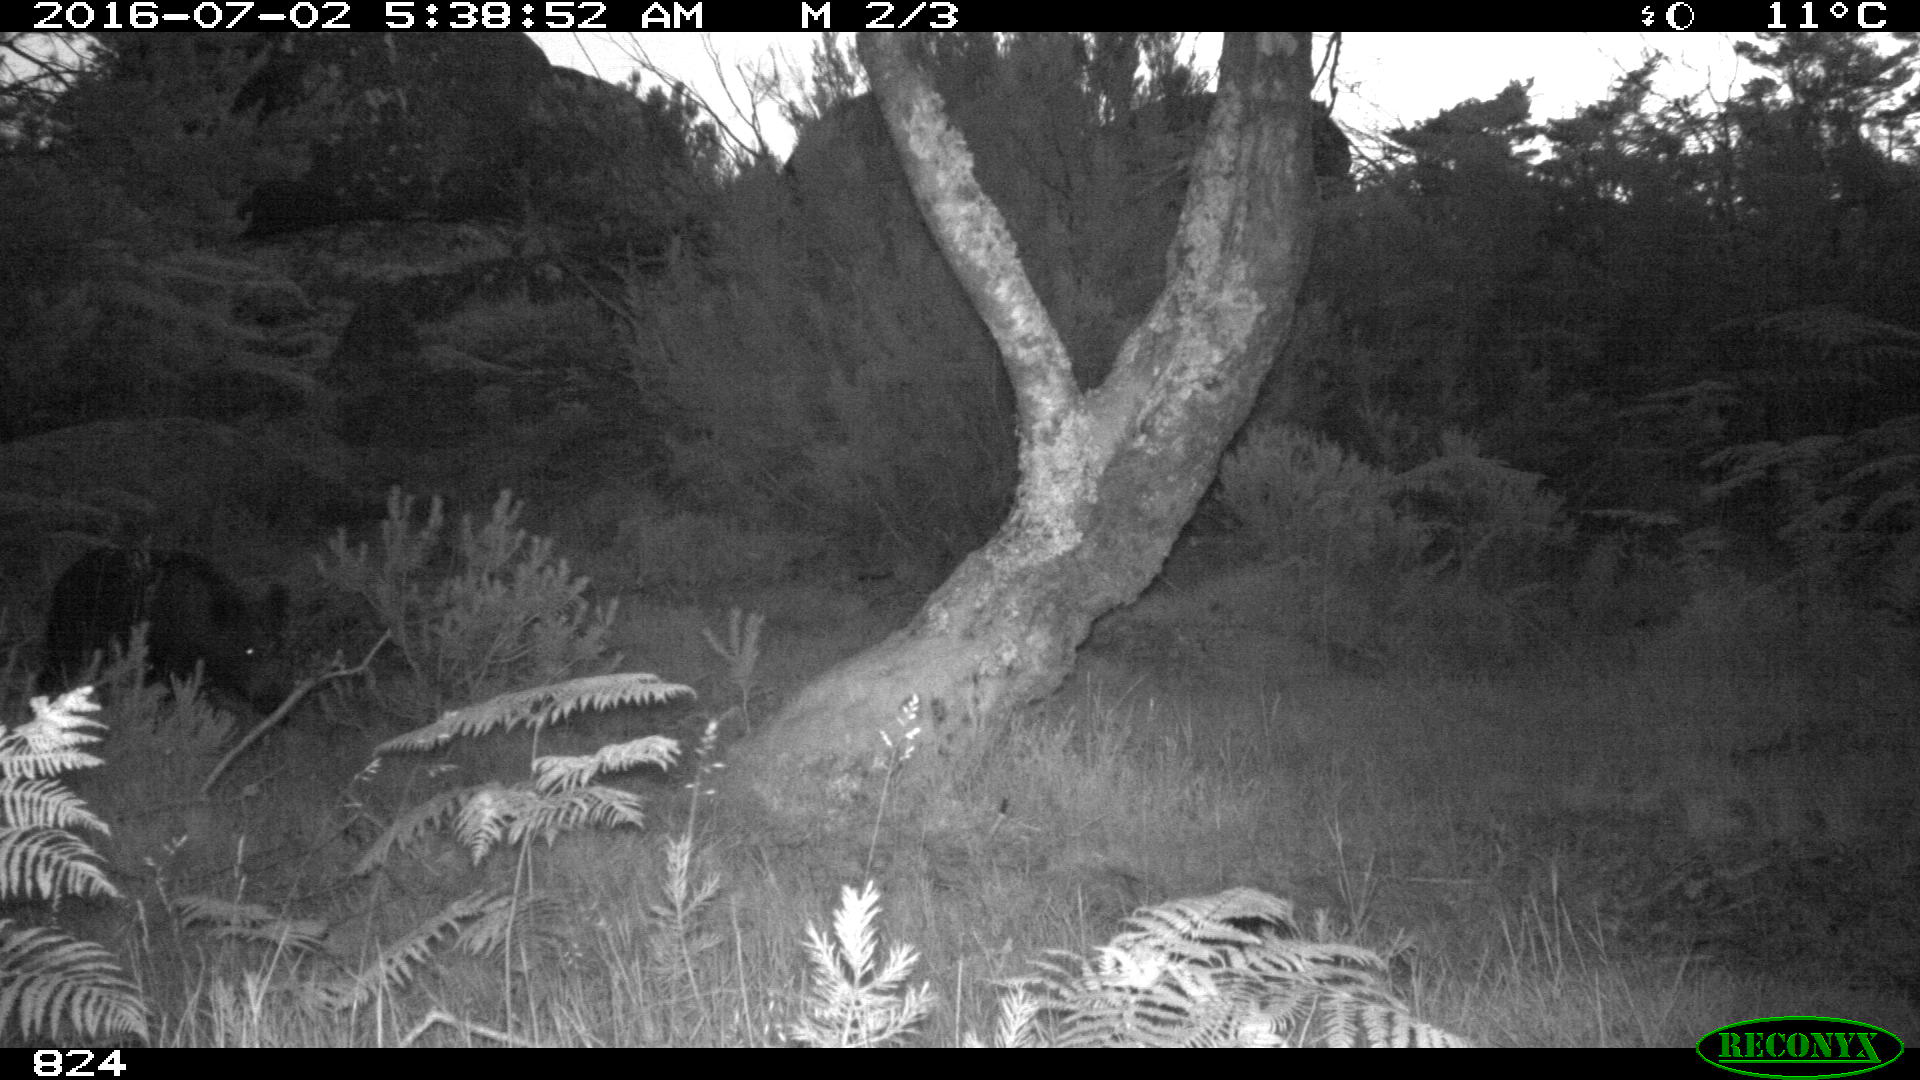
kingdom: Animalia
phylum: Chordata
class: Mammalia
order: Artiodactyla
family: Suidae
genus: Sus
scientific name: Sus scrofa
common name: Wild boar
